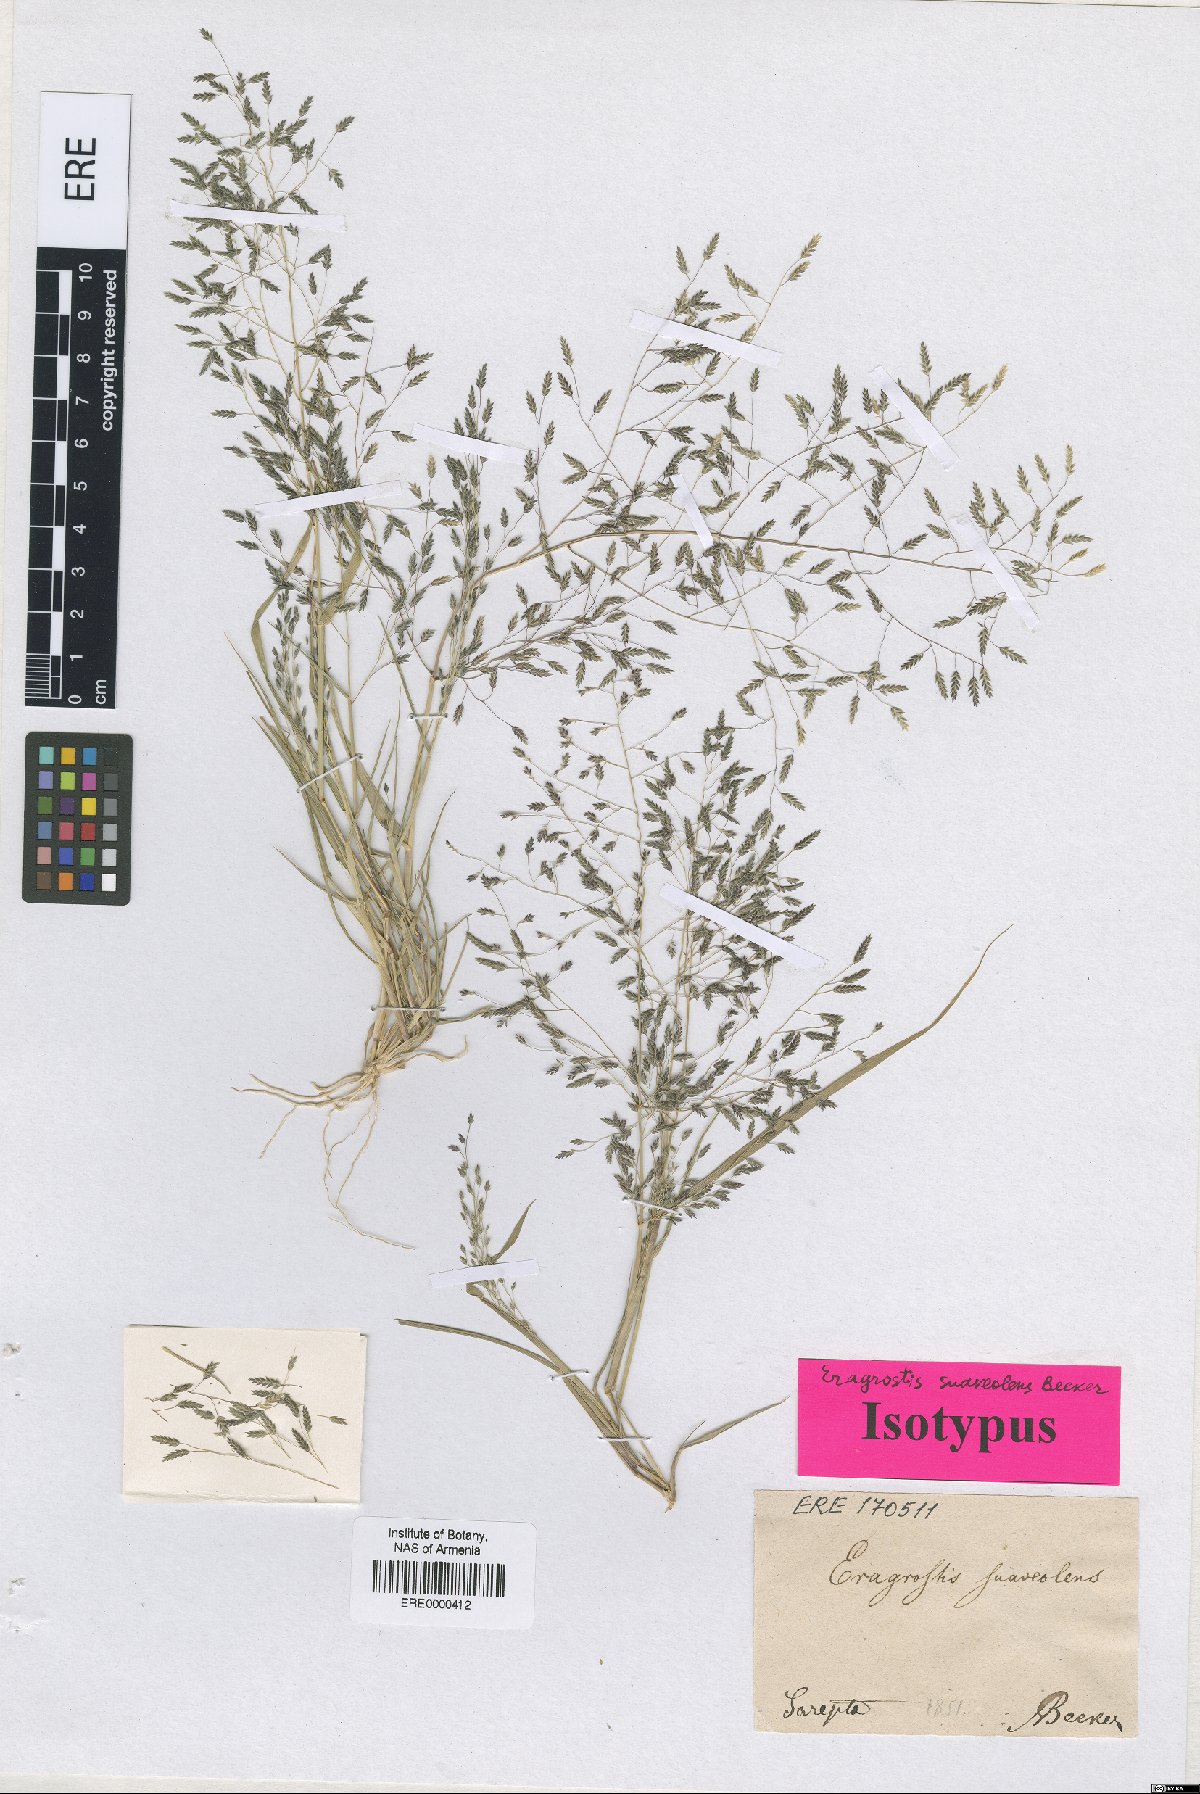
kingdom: Plantae
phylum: Tracheophyta
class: Liliopsida
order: Poales
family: Poaceae
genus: Eragrostis
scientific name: Eragrostis minor
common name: Small love-grass
